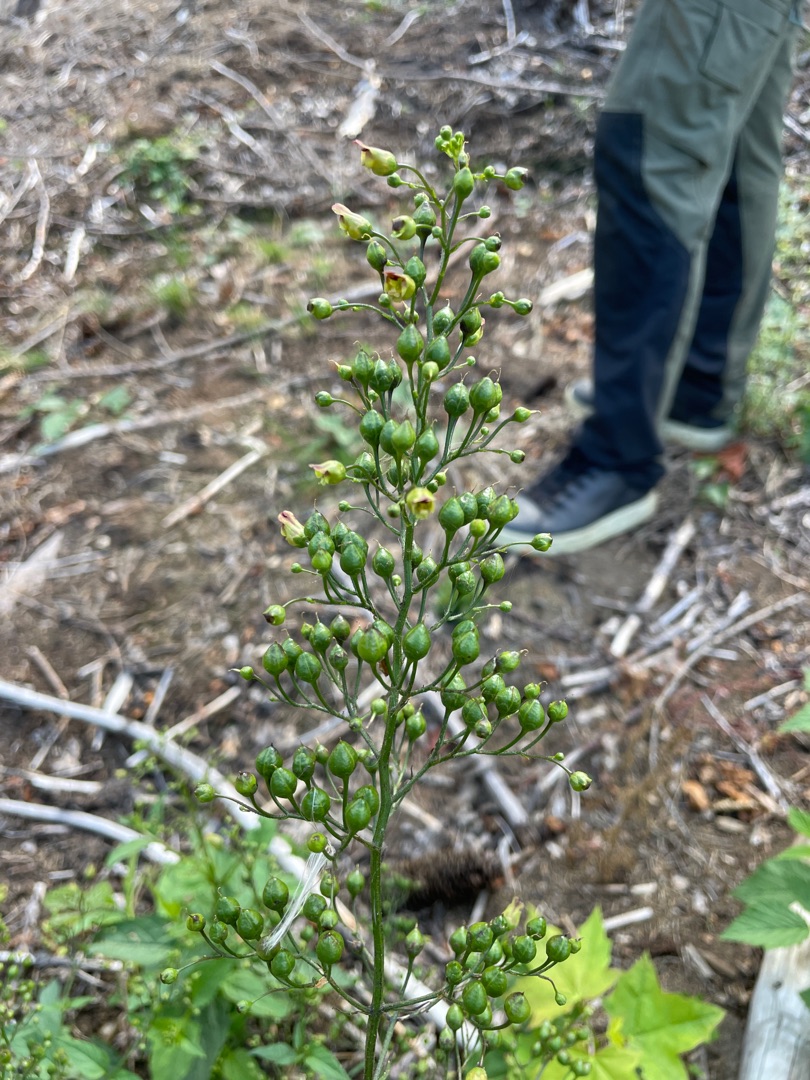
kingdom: Plantae
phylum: Tracheophyta
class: Magnoliopsida
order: Lamiales
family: Scrophulariaceae
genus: Scrophularia
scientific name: Scrophularia nodosa
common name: Knoldet brunrod
